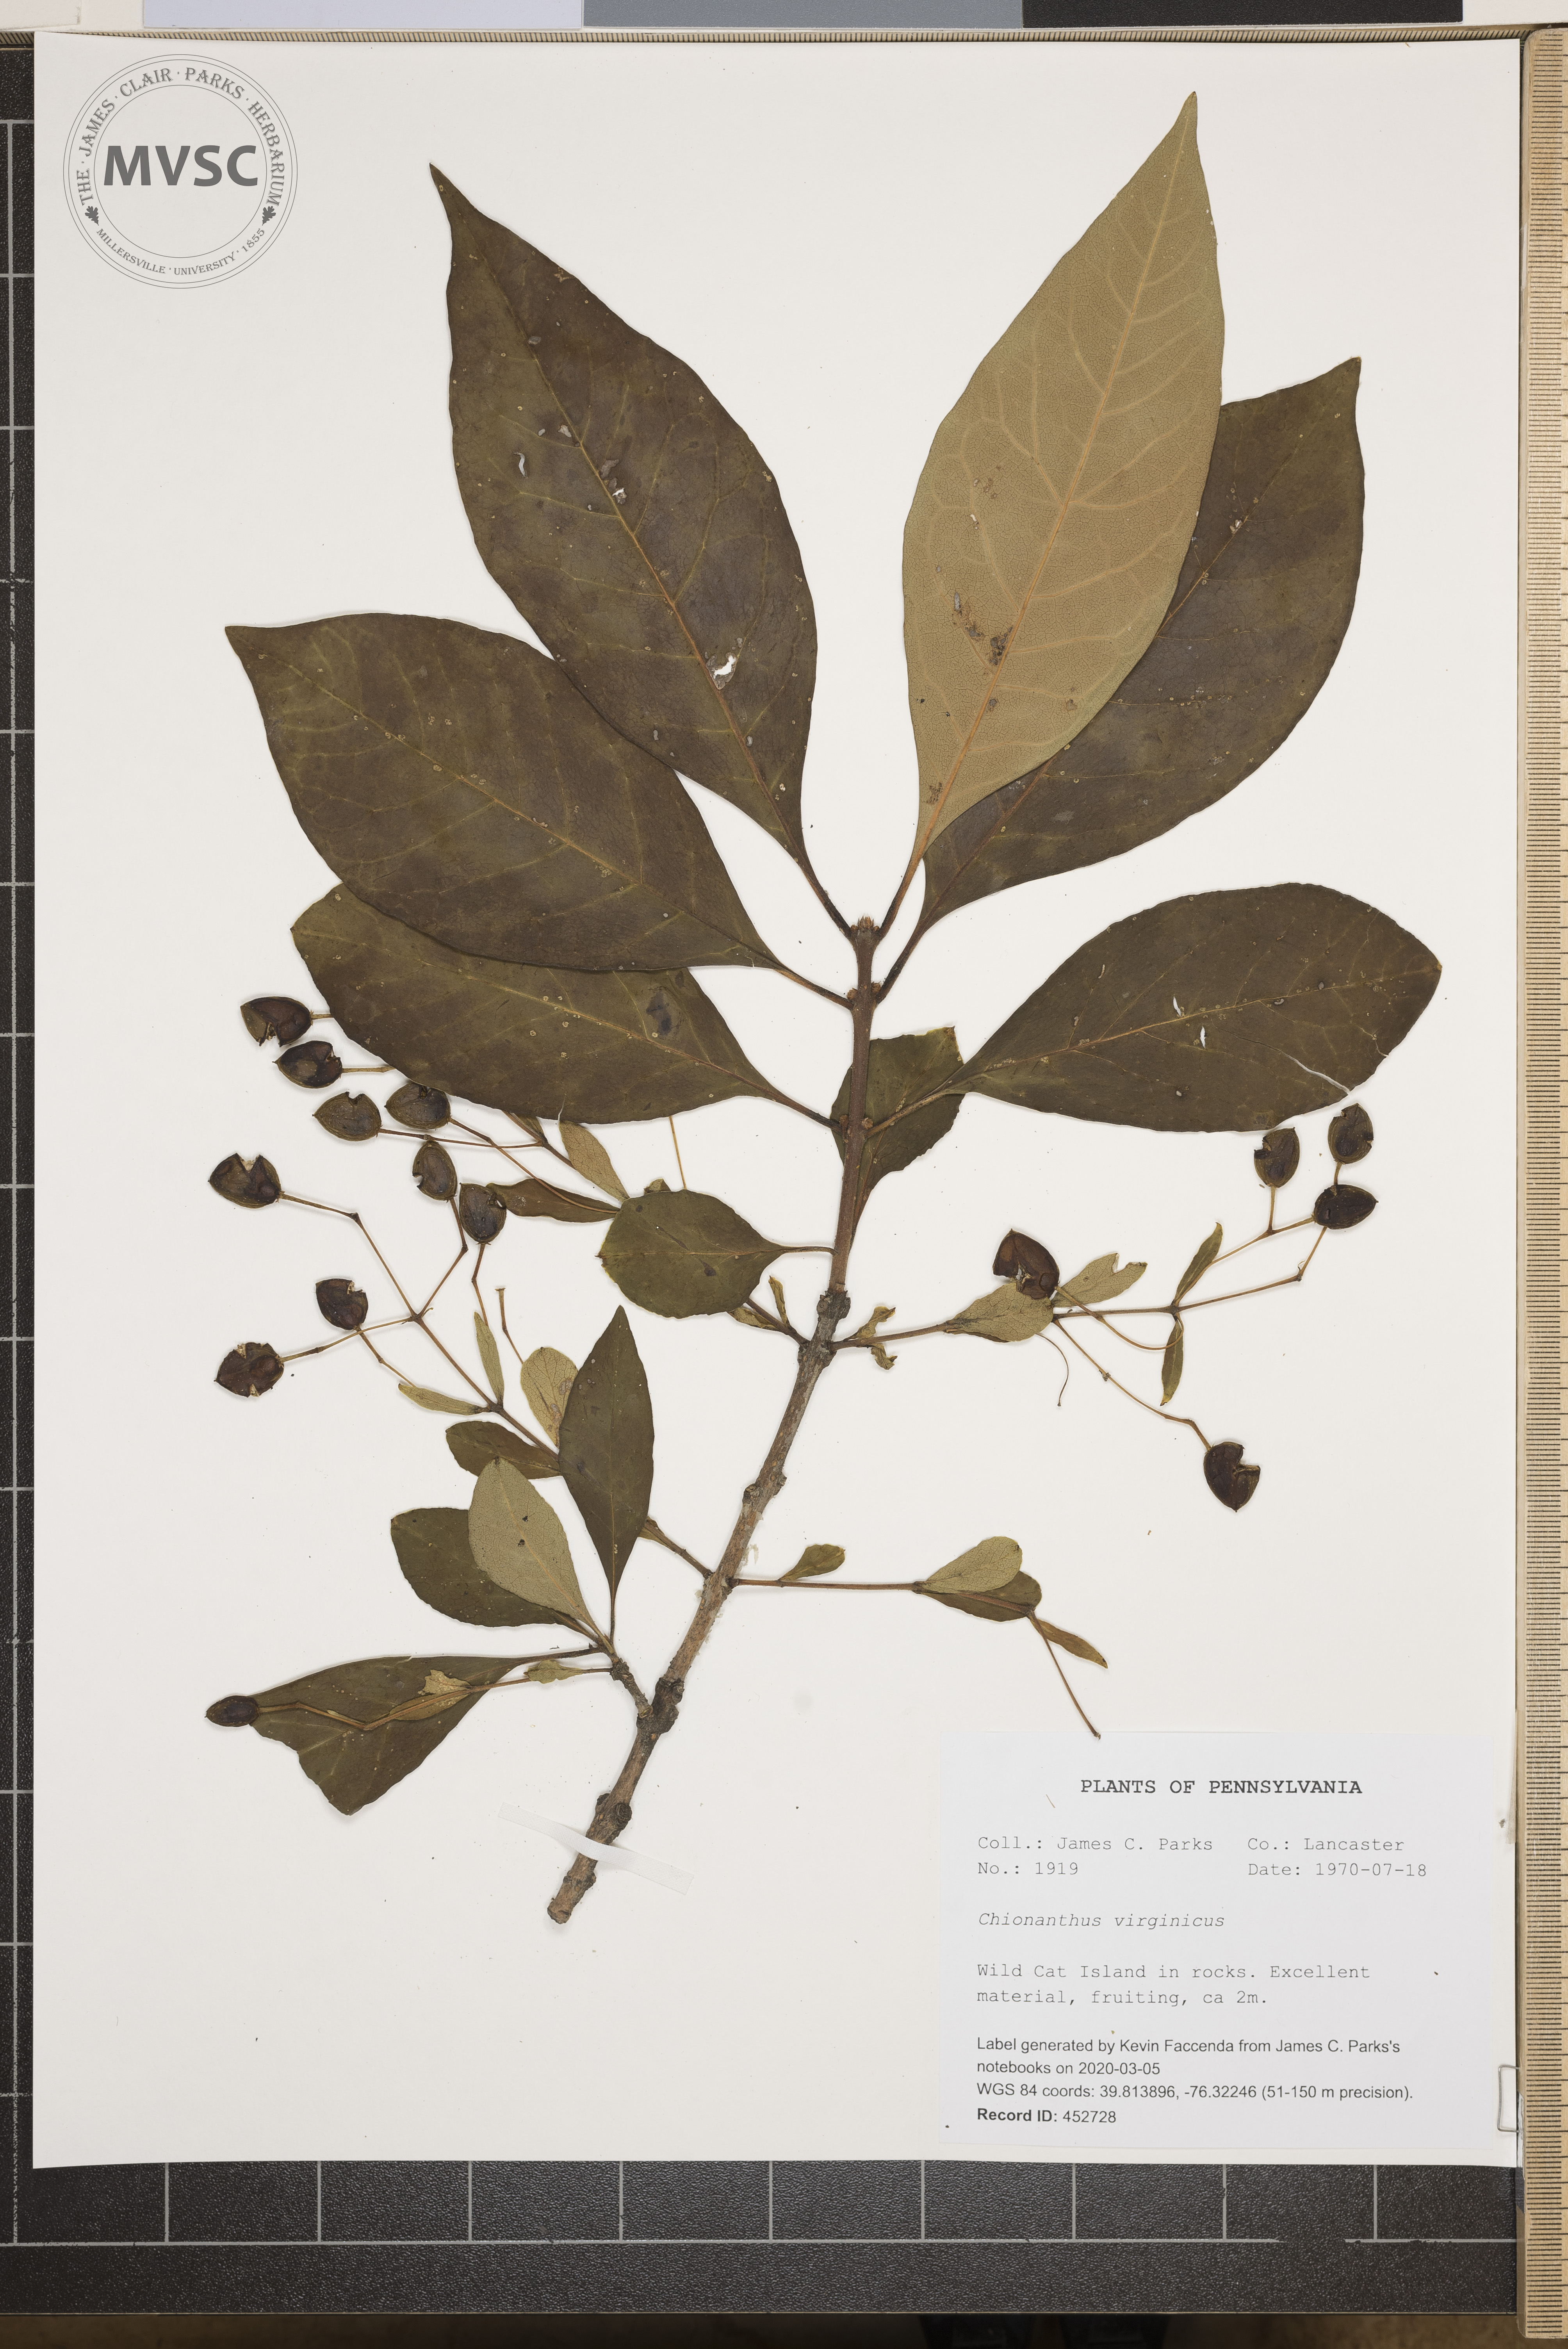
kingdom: Plantae
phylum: Tracheophyta
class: Magnoliopsida
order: Lamiales
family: Oleaceae
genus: Chionanthus
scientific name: Chionanthus virginicus
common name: American fringetree
